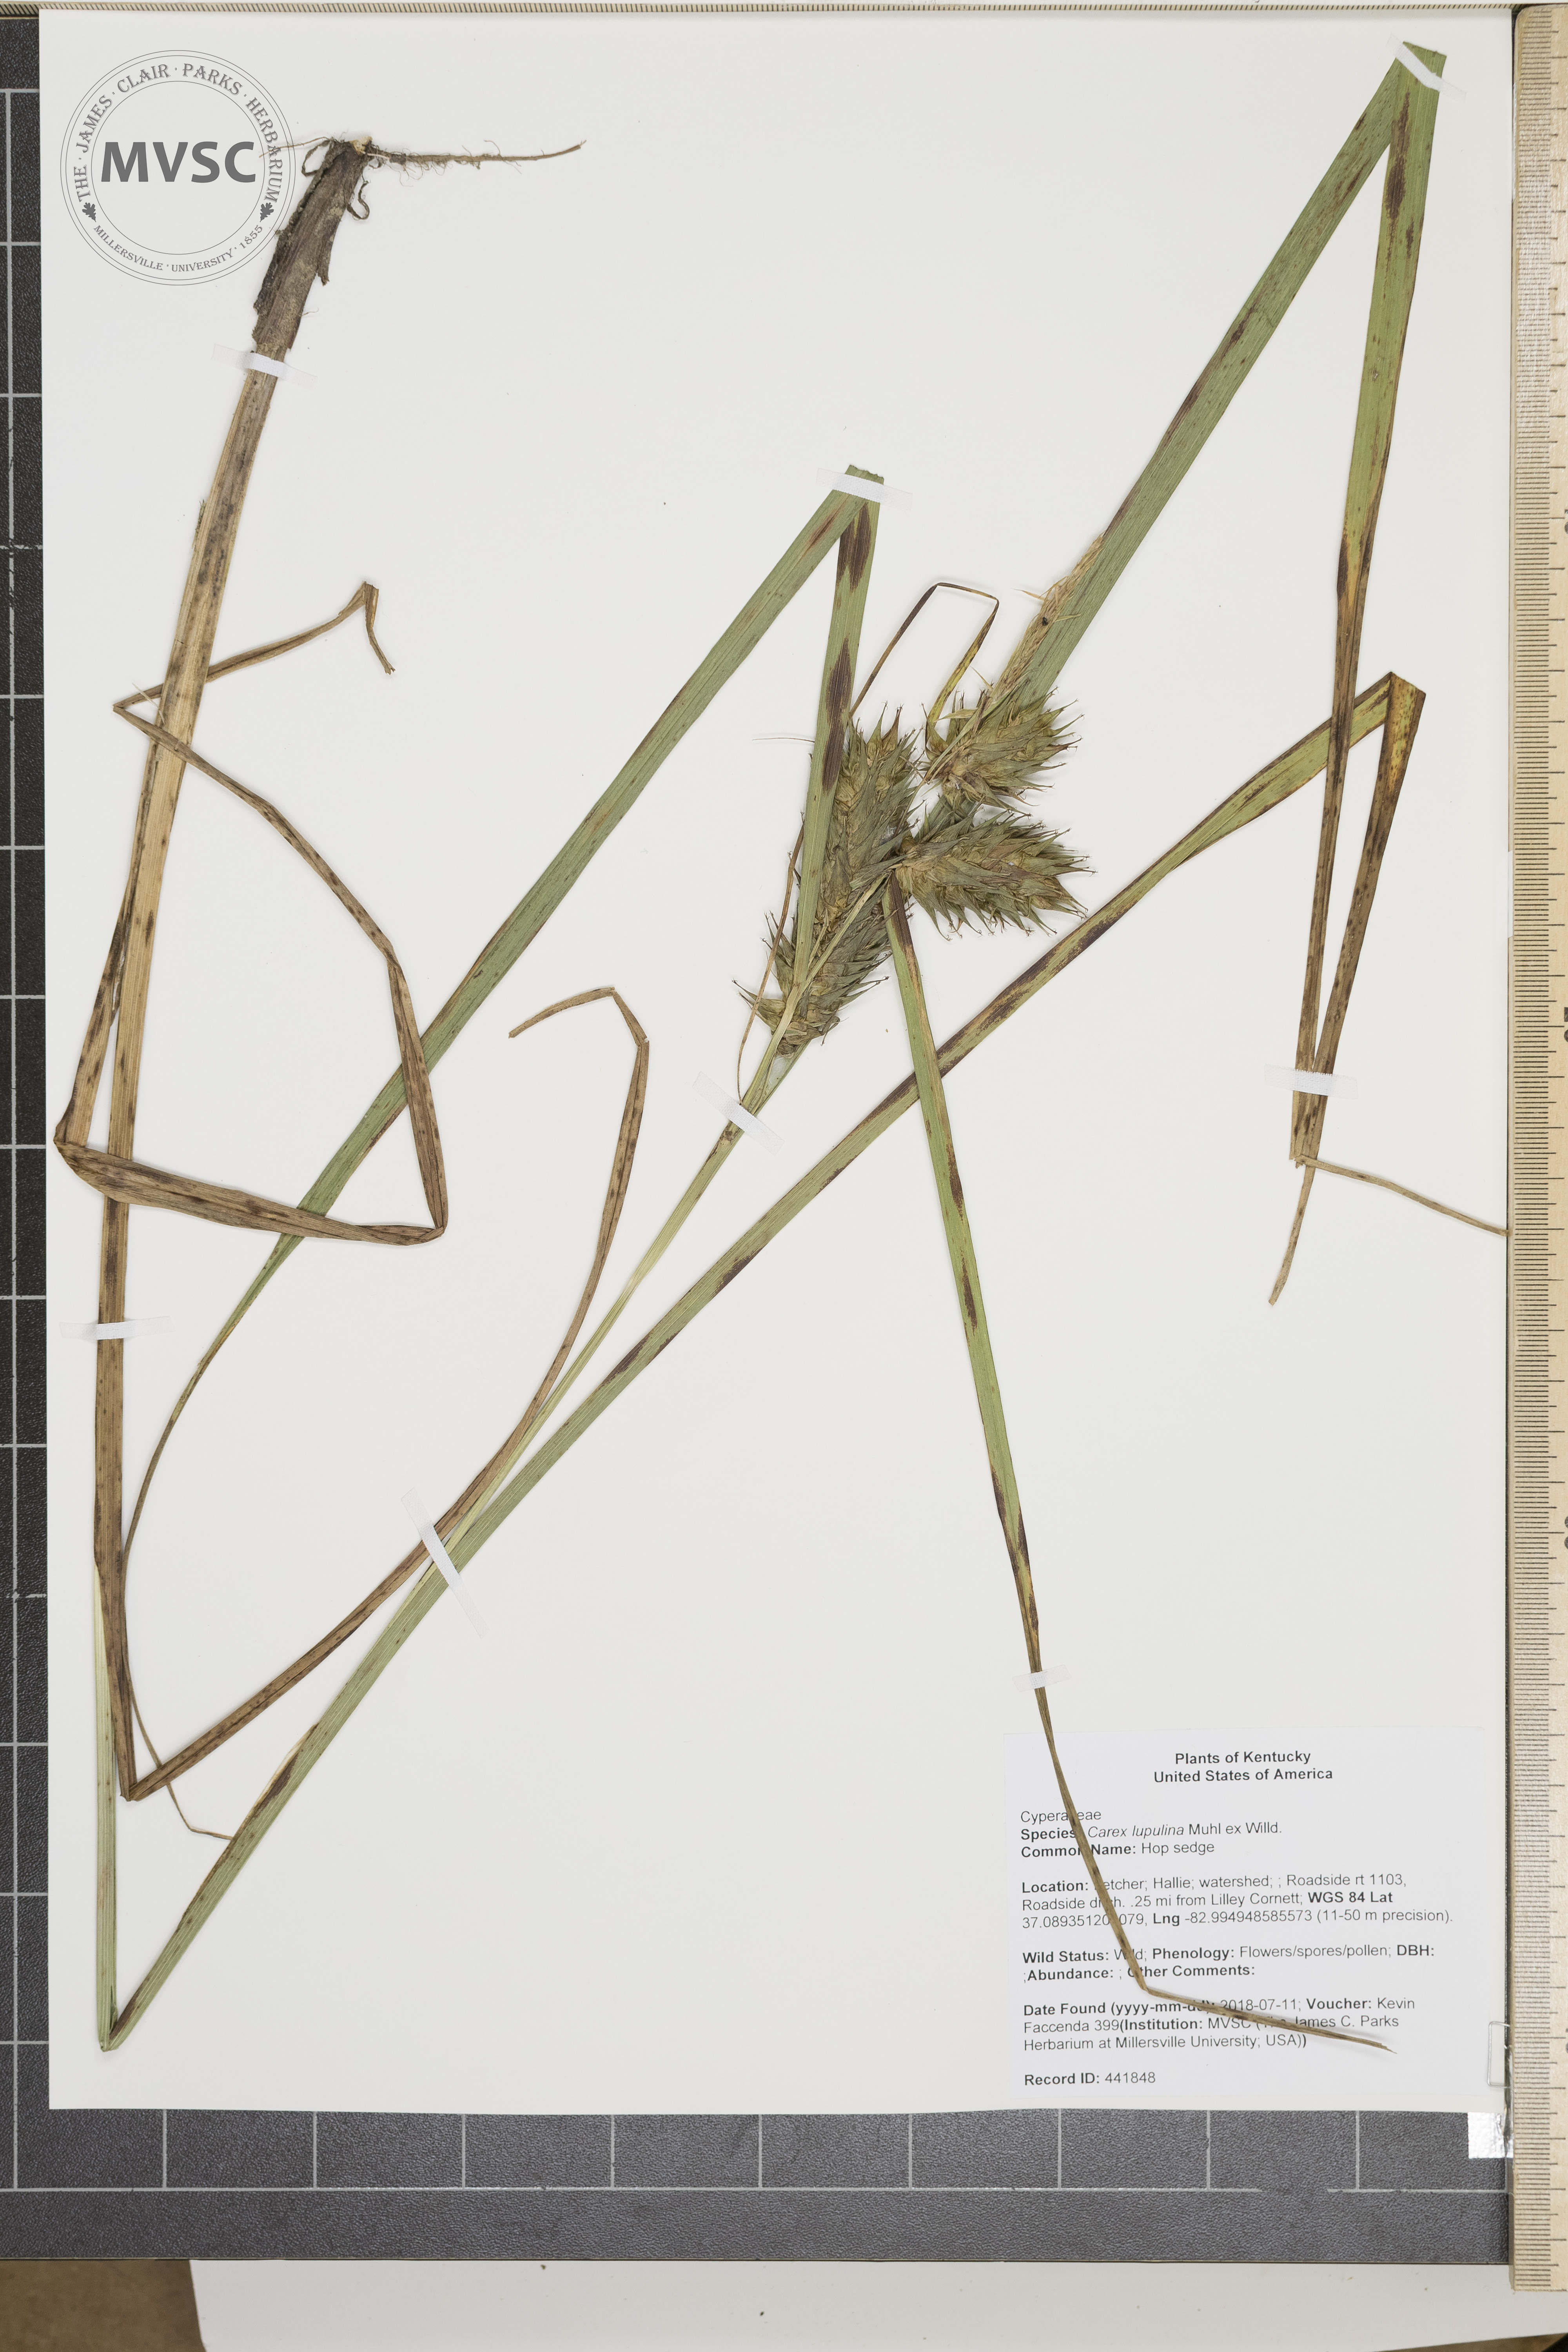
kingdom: Plantae
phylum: Tracheophyta
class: Liliopsida
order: Poales
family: Cyperaceae
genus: Carex
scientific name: Carex lupulina
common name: Hop sedge
